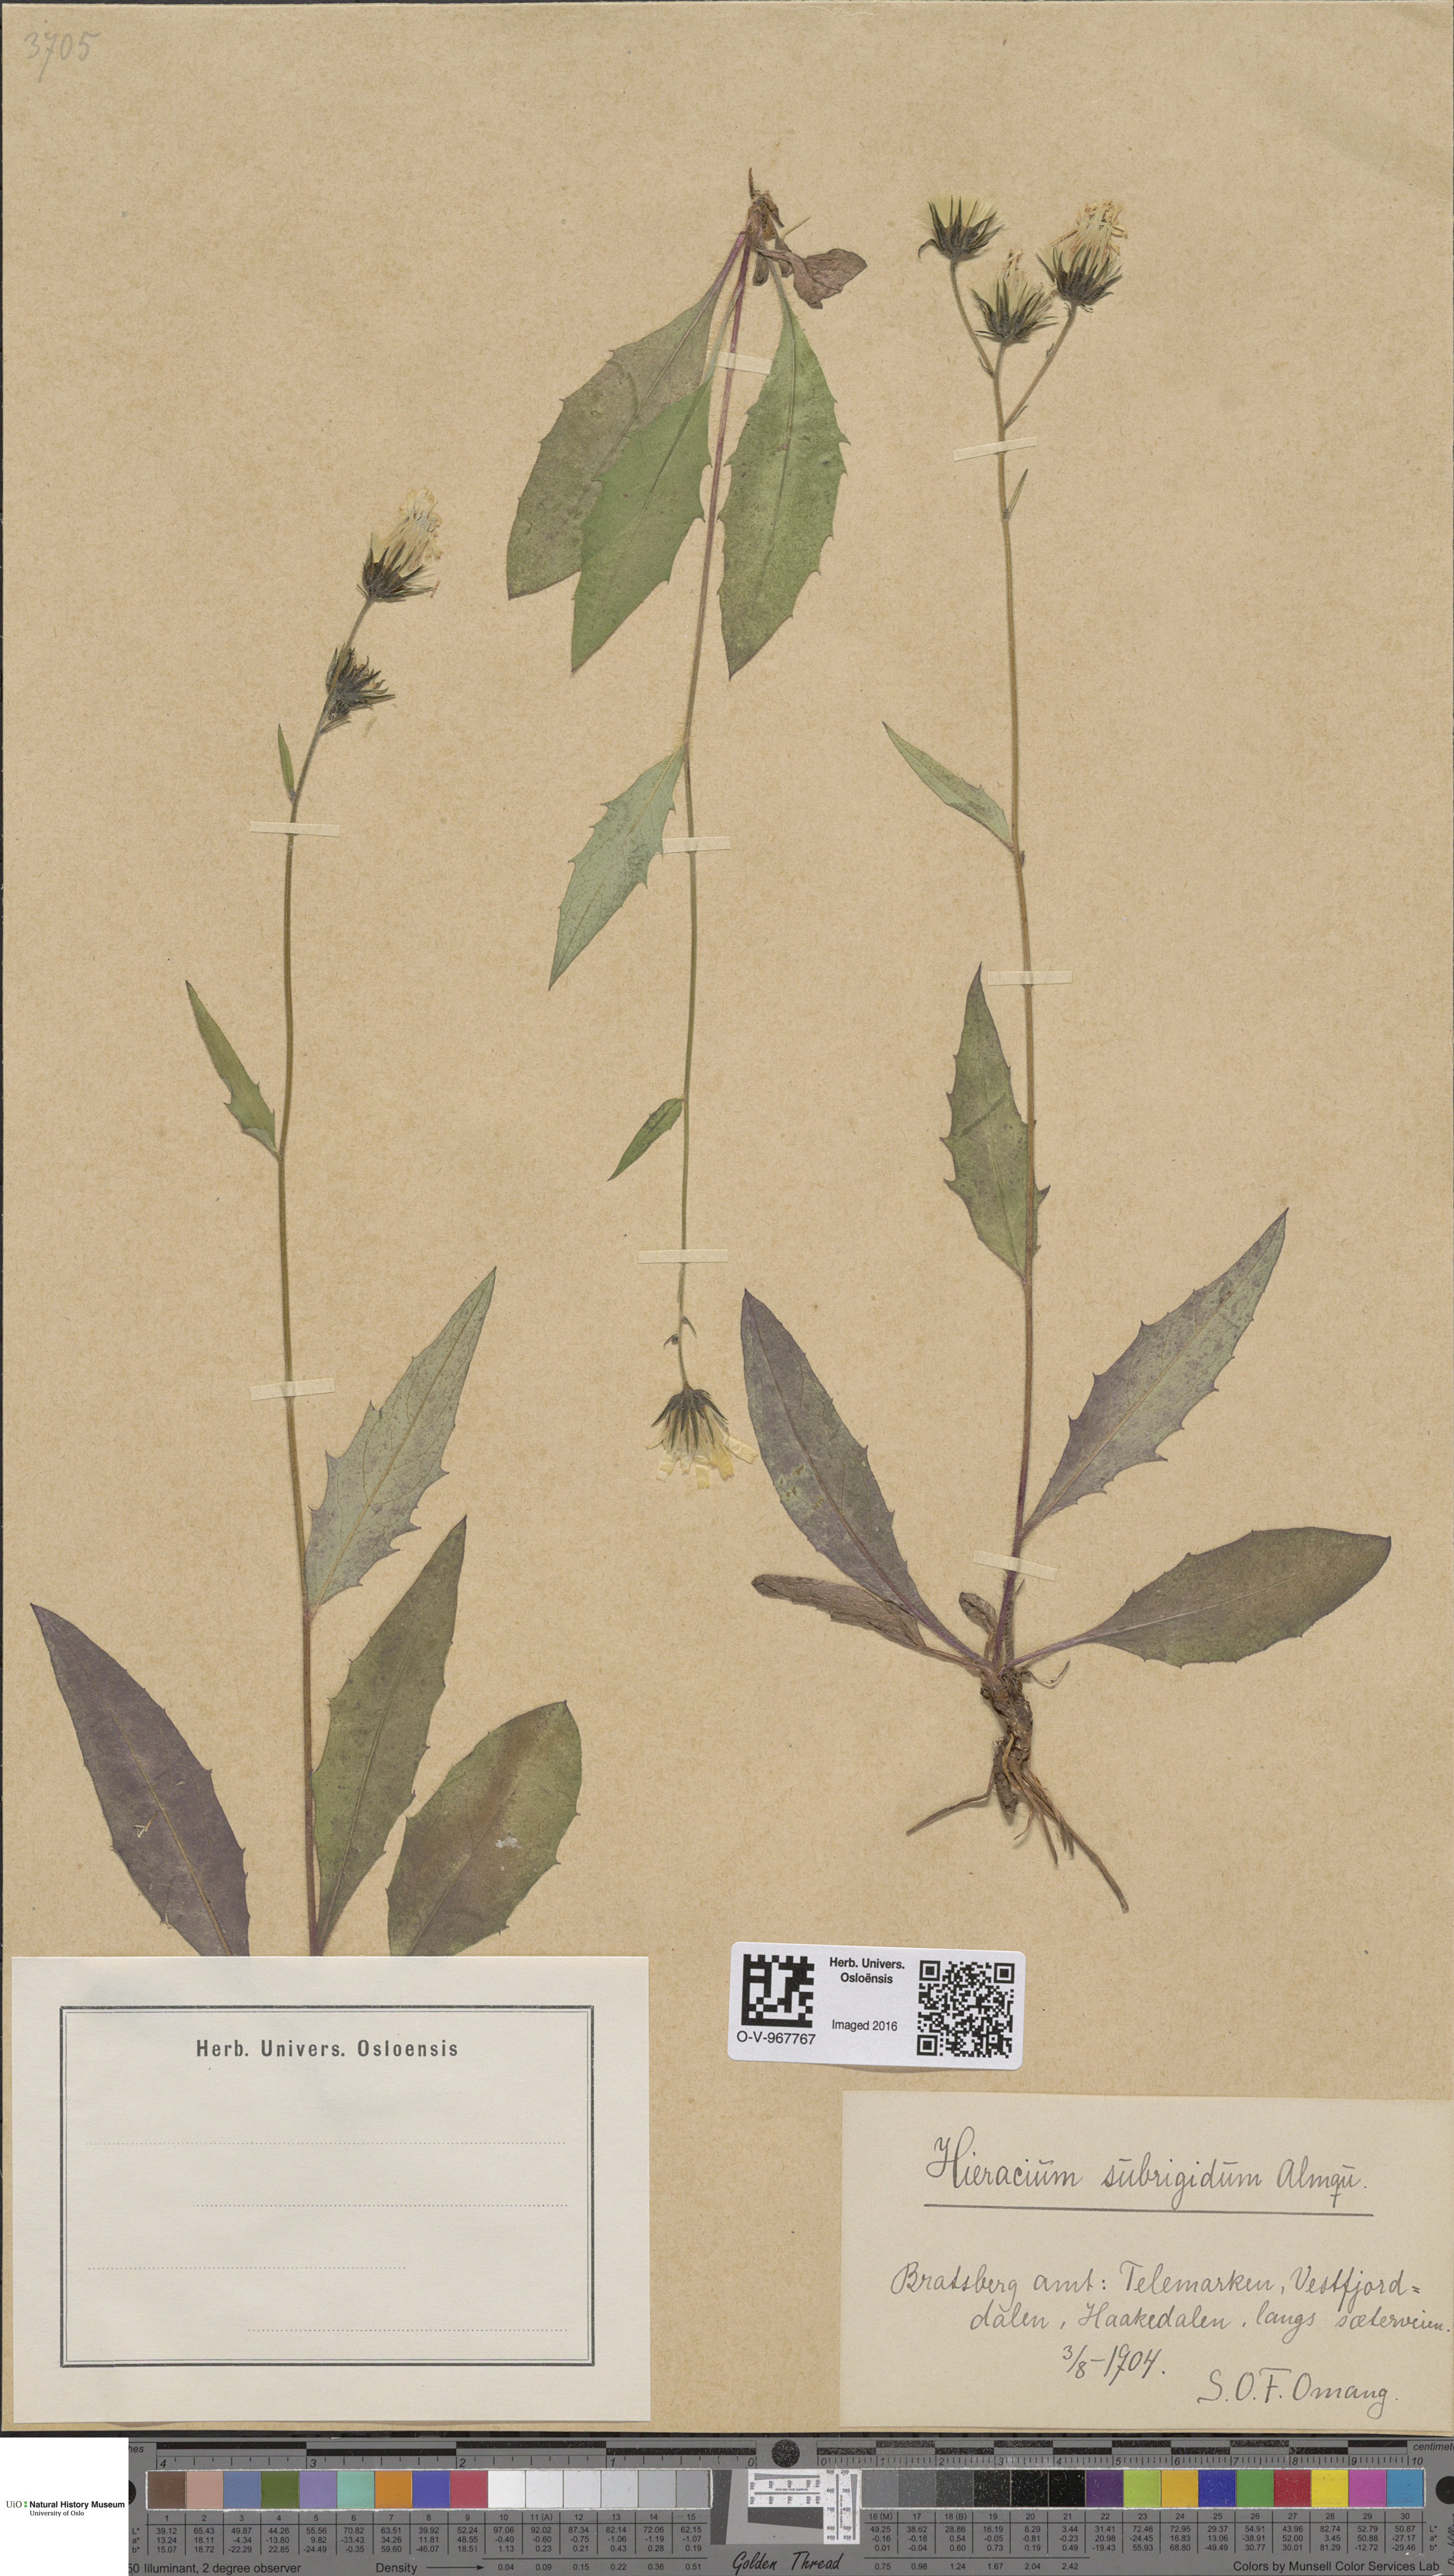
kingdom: Plantae
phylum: Tracheophyta
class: Magnoliopsida
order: Asterales
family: Asteraceae
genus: Hieracium
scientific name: Hieracium subrigidum
